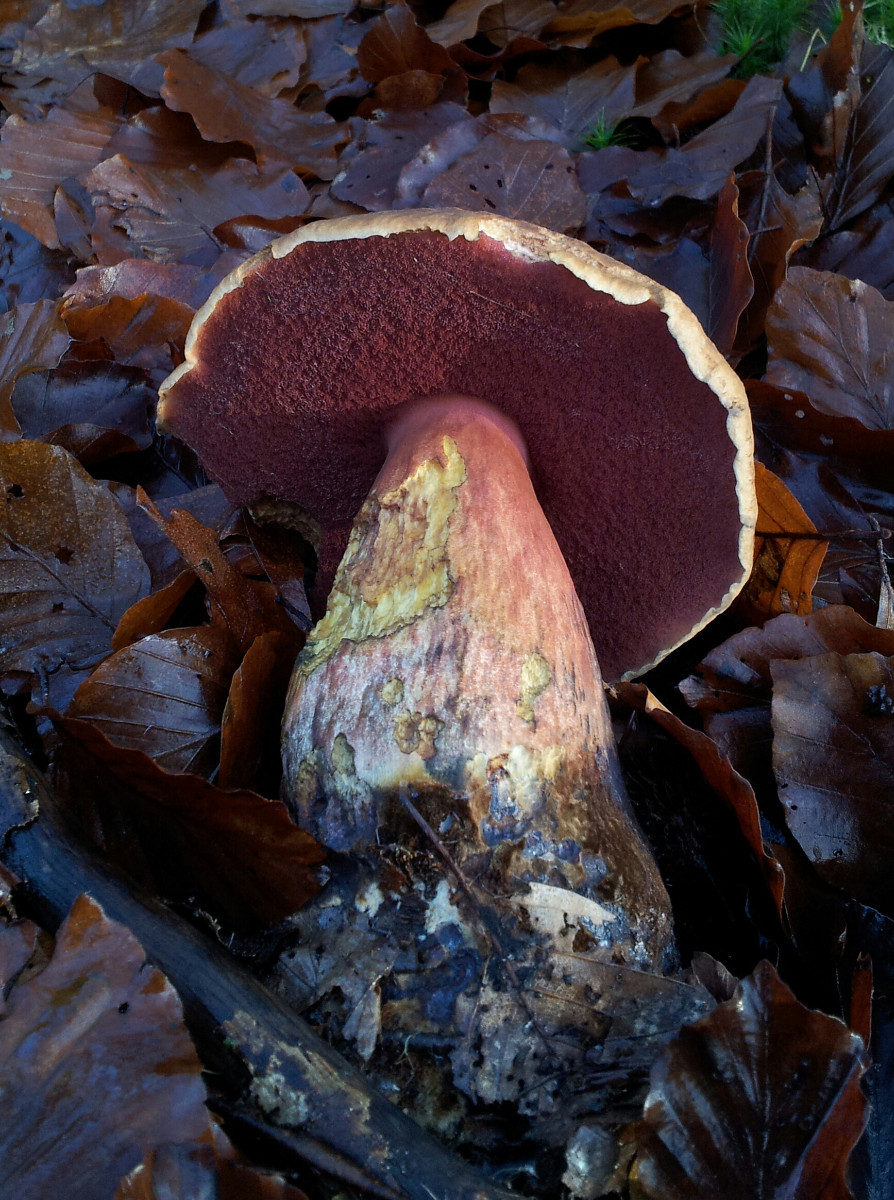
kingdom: Fungi
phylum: Basidiomycota
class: Agaricomycetes
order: Boletales
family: Boletaceae
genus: Neoboletus
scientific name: Neoboletus erythropus
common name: punktstokket indigorørhat
